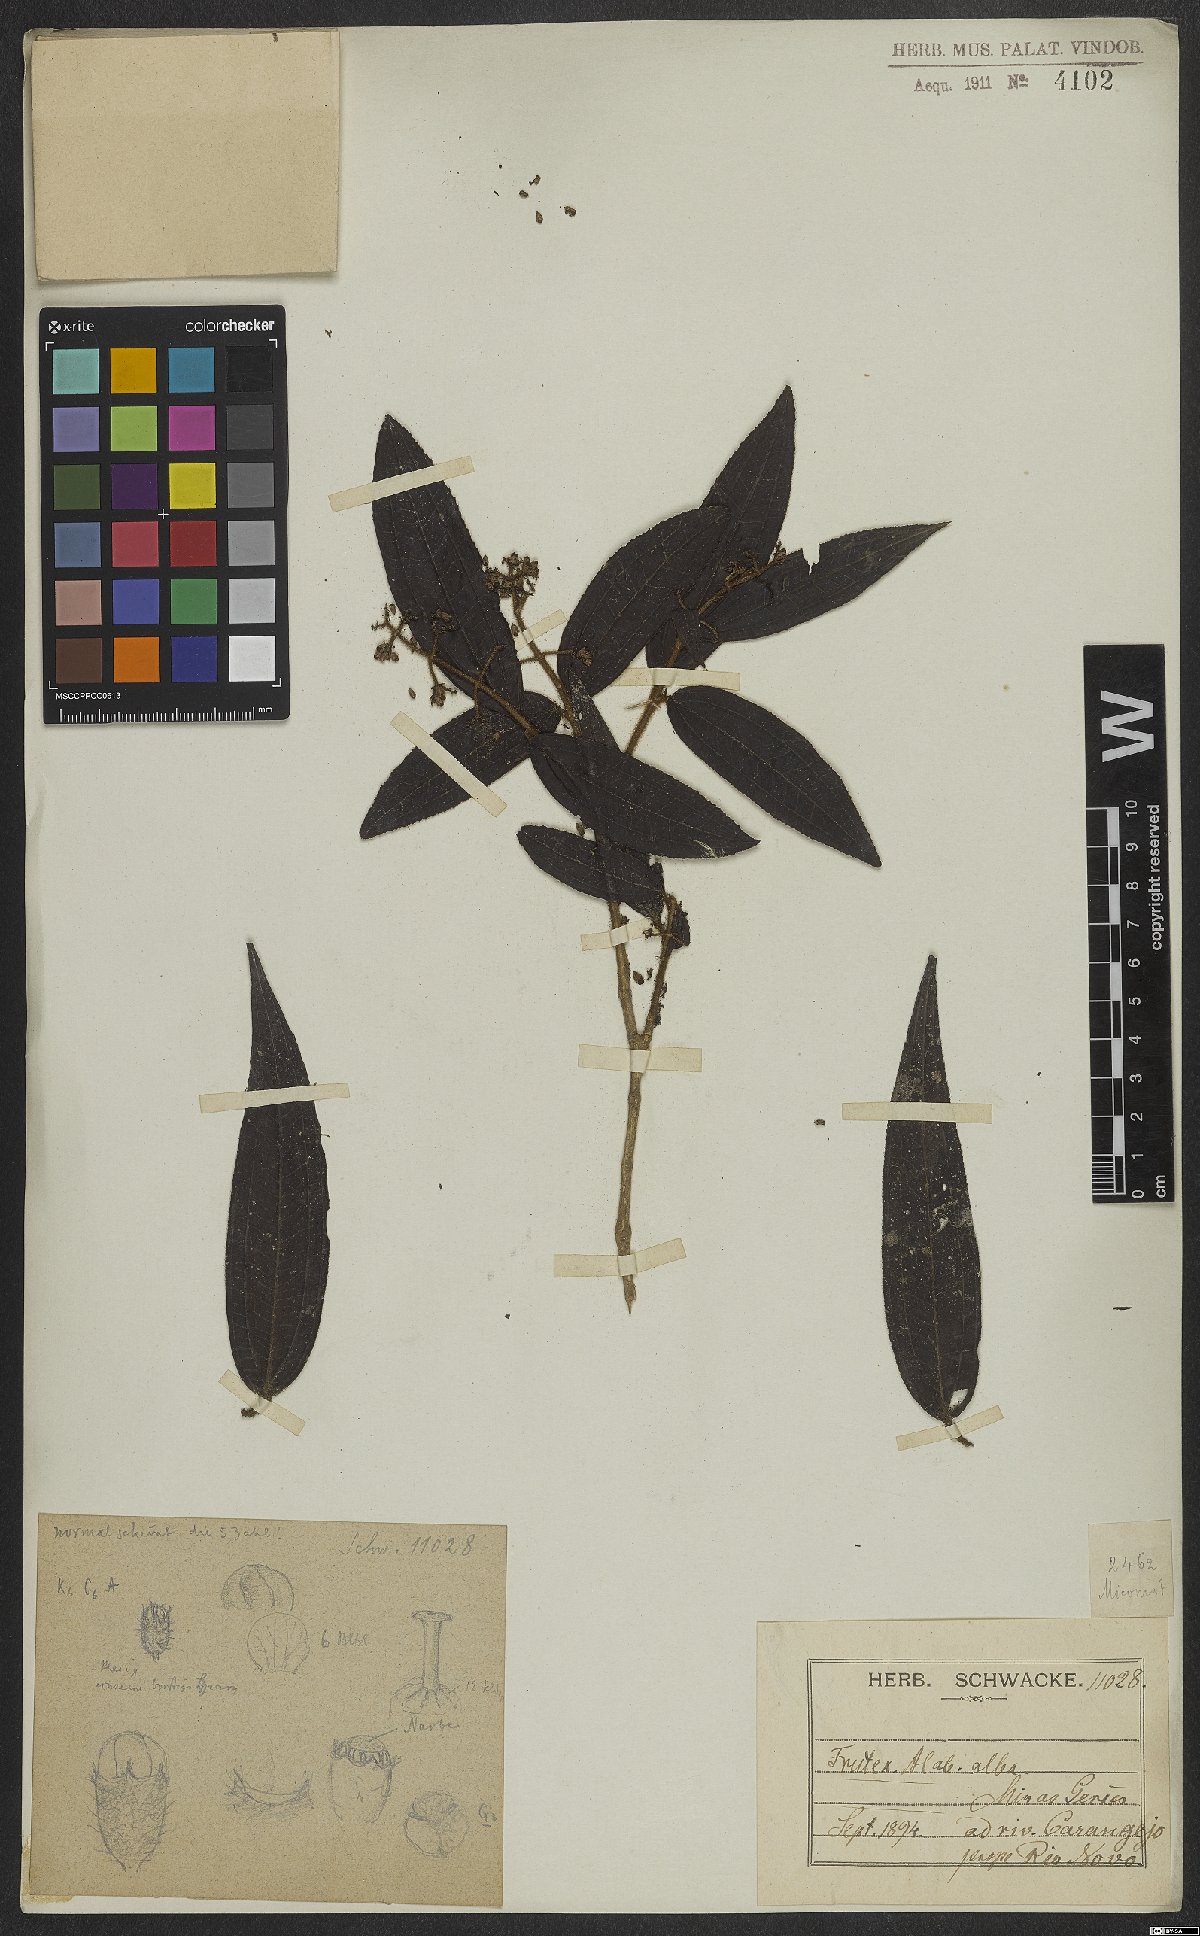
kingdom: Plantae
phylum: Tracheophyta
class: Magnoliopsida
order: Myrtales
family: Melastomataceae
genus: Miconia
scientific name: Miconia
